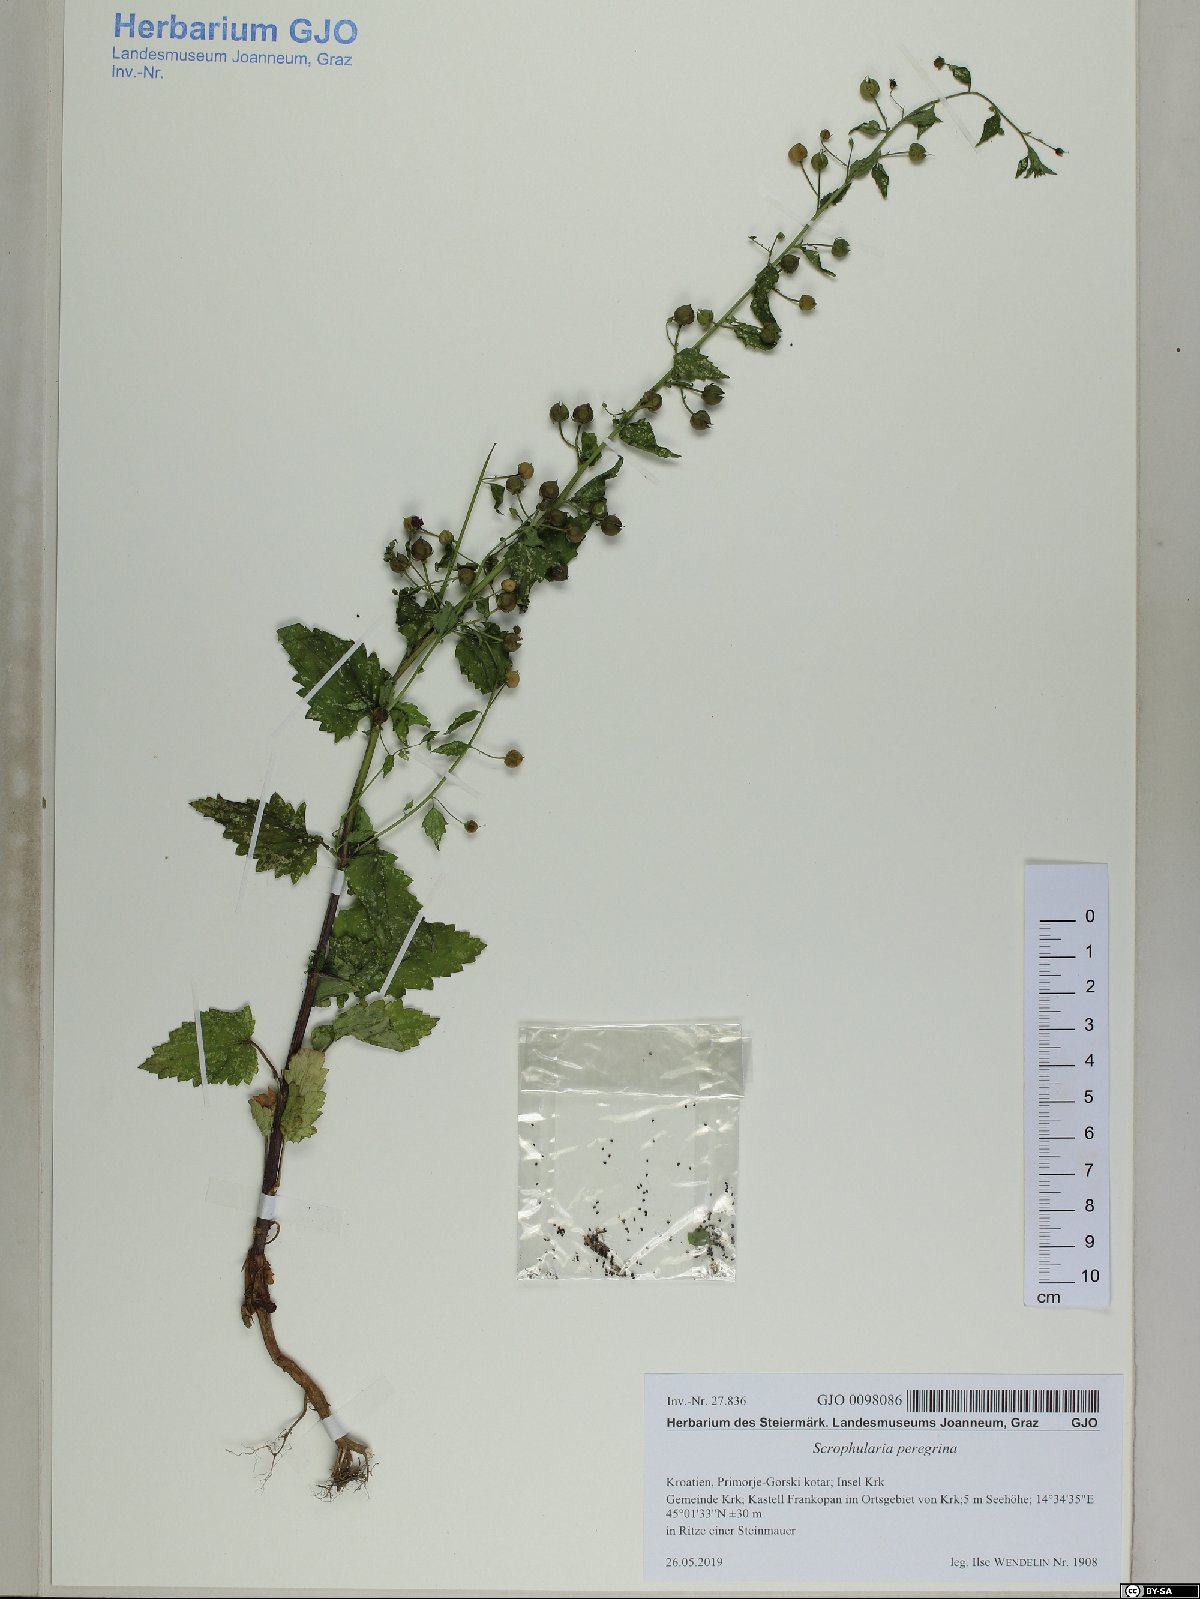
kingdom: Plantae
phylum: Tracheophyta
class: Magnoliopsida
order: Lamiales
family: Scrophulariaceae
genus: Scrophularia
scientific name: Scrophularia peregrina
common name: Mediterranean figwort
